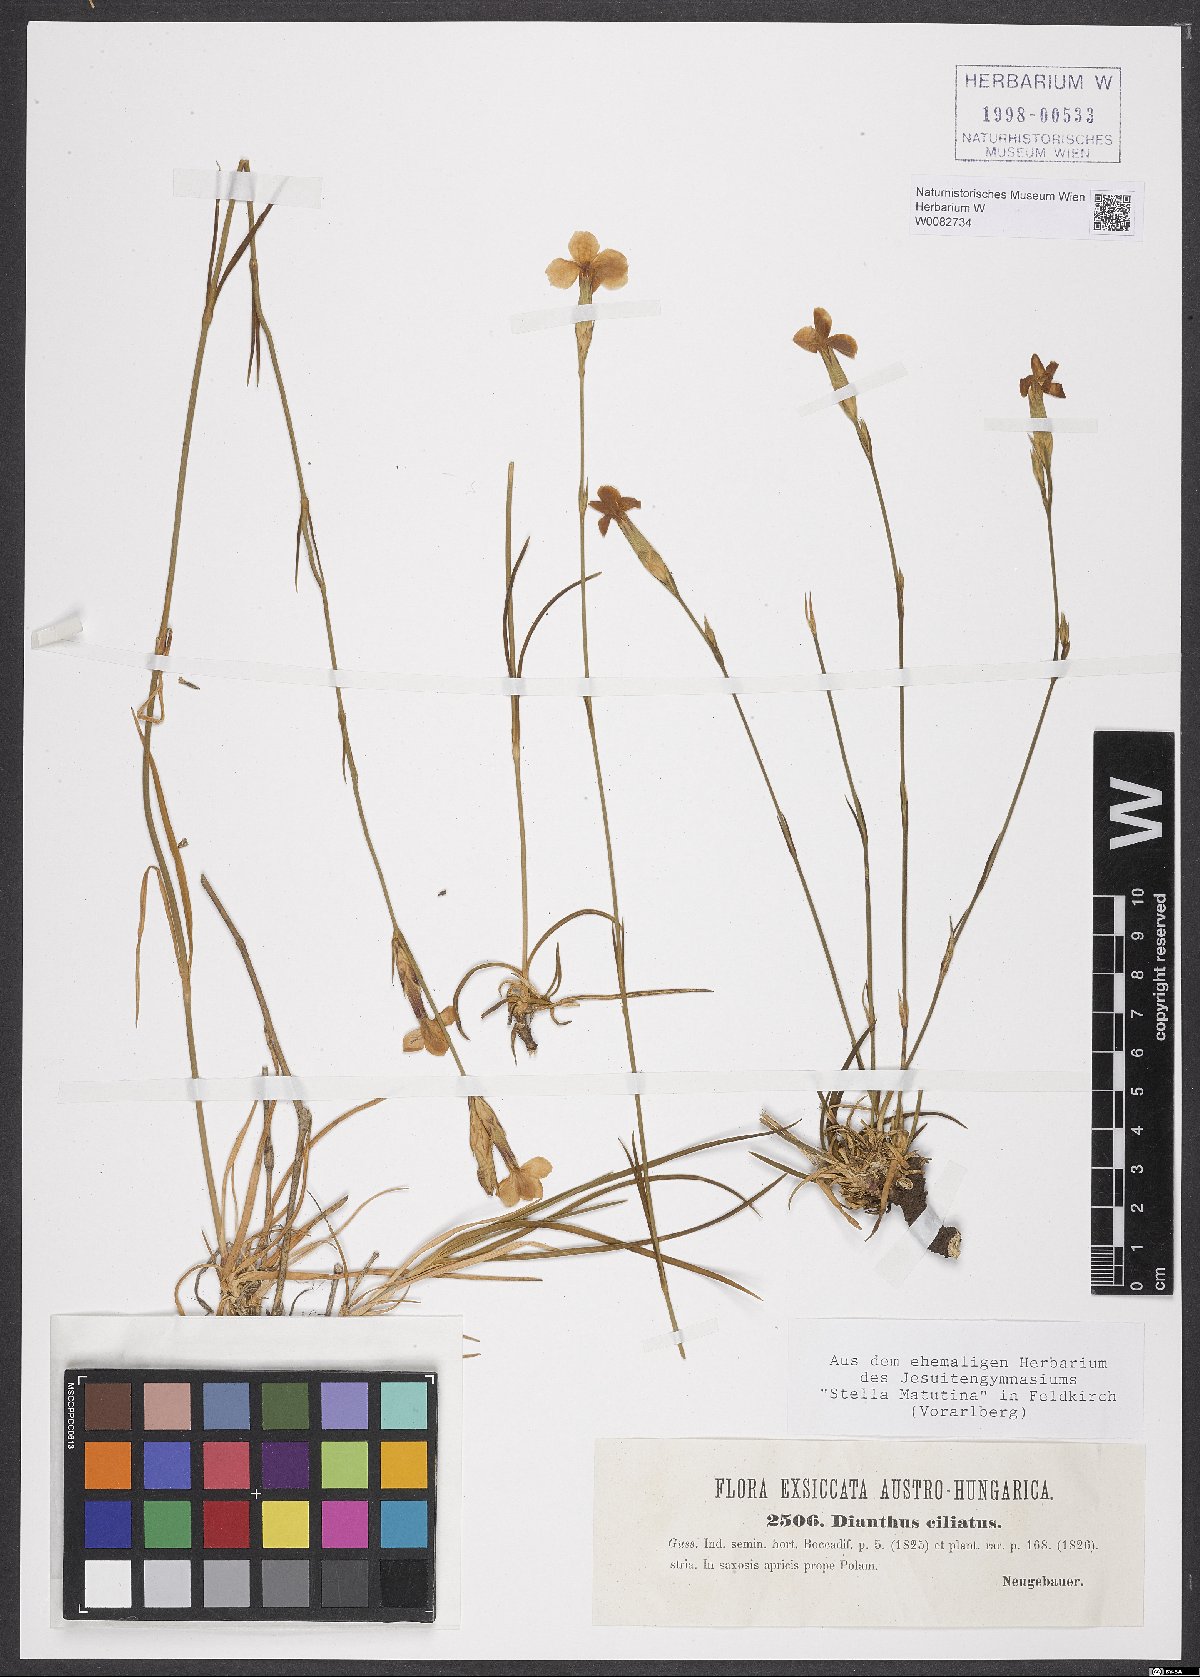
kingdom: Plantae
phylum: Tracheophyta
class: Magnoliopsida
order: Caryophyllales
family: Caryophyllaceae
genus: Dianthus
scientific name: Dianthus ciliatus
